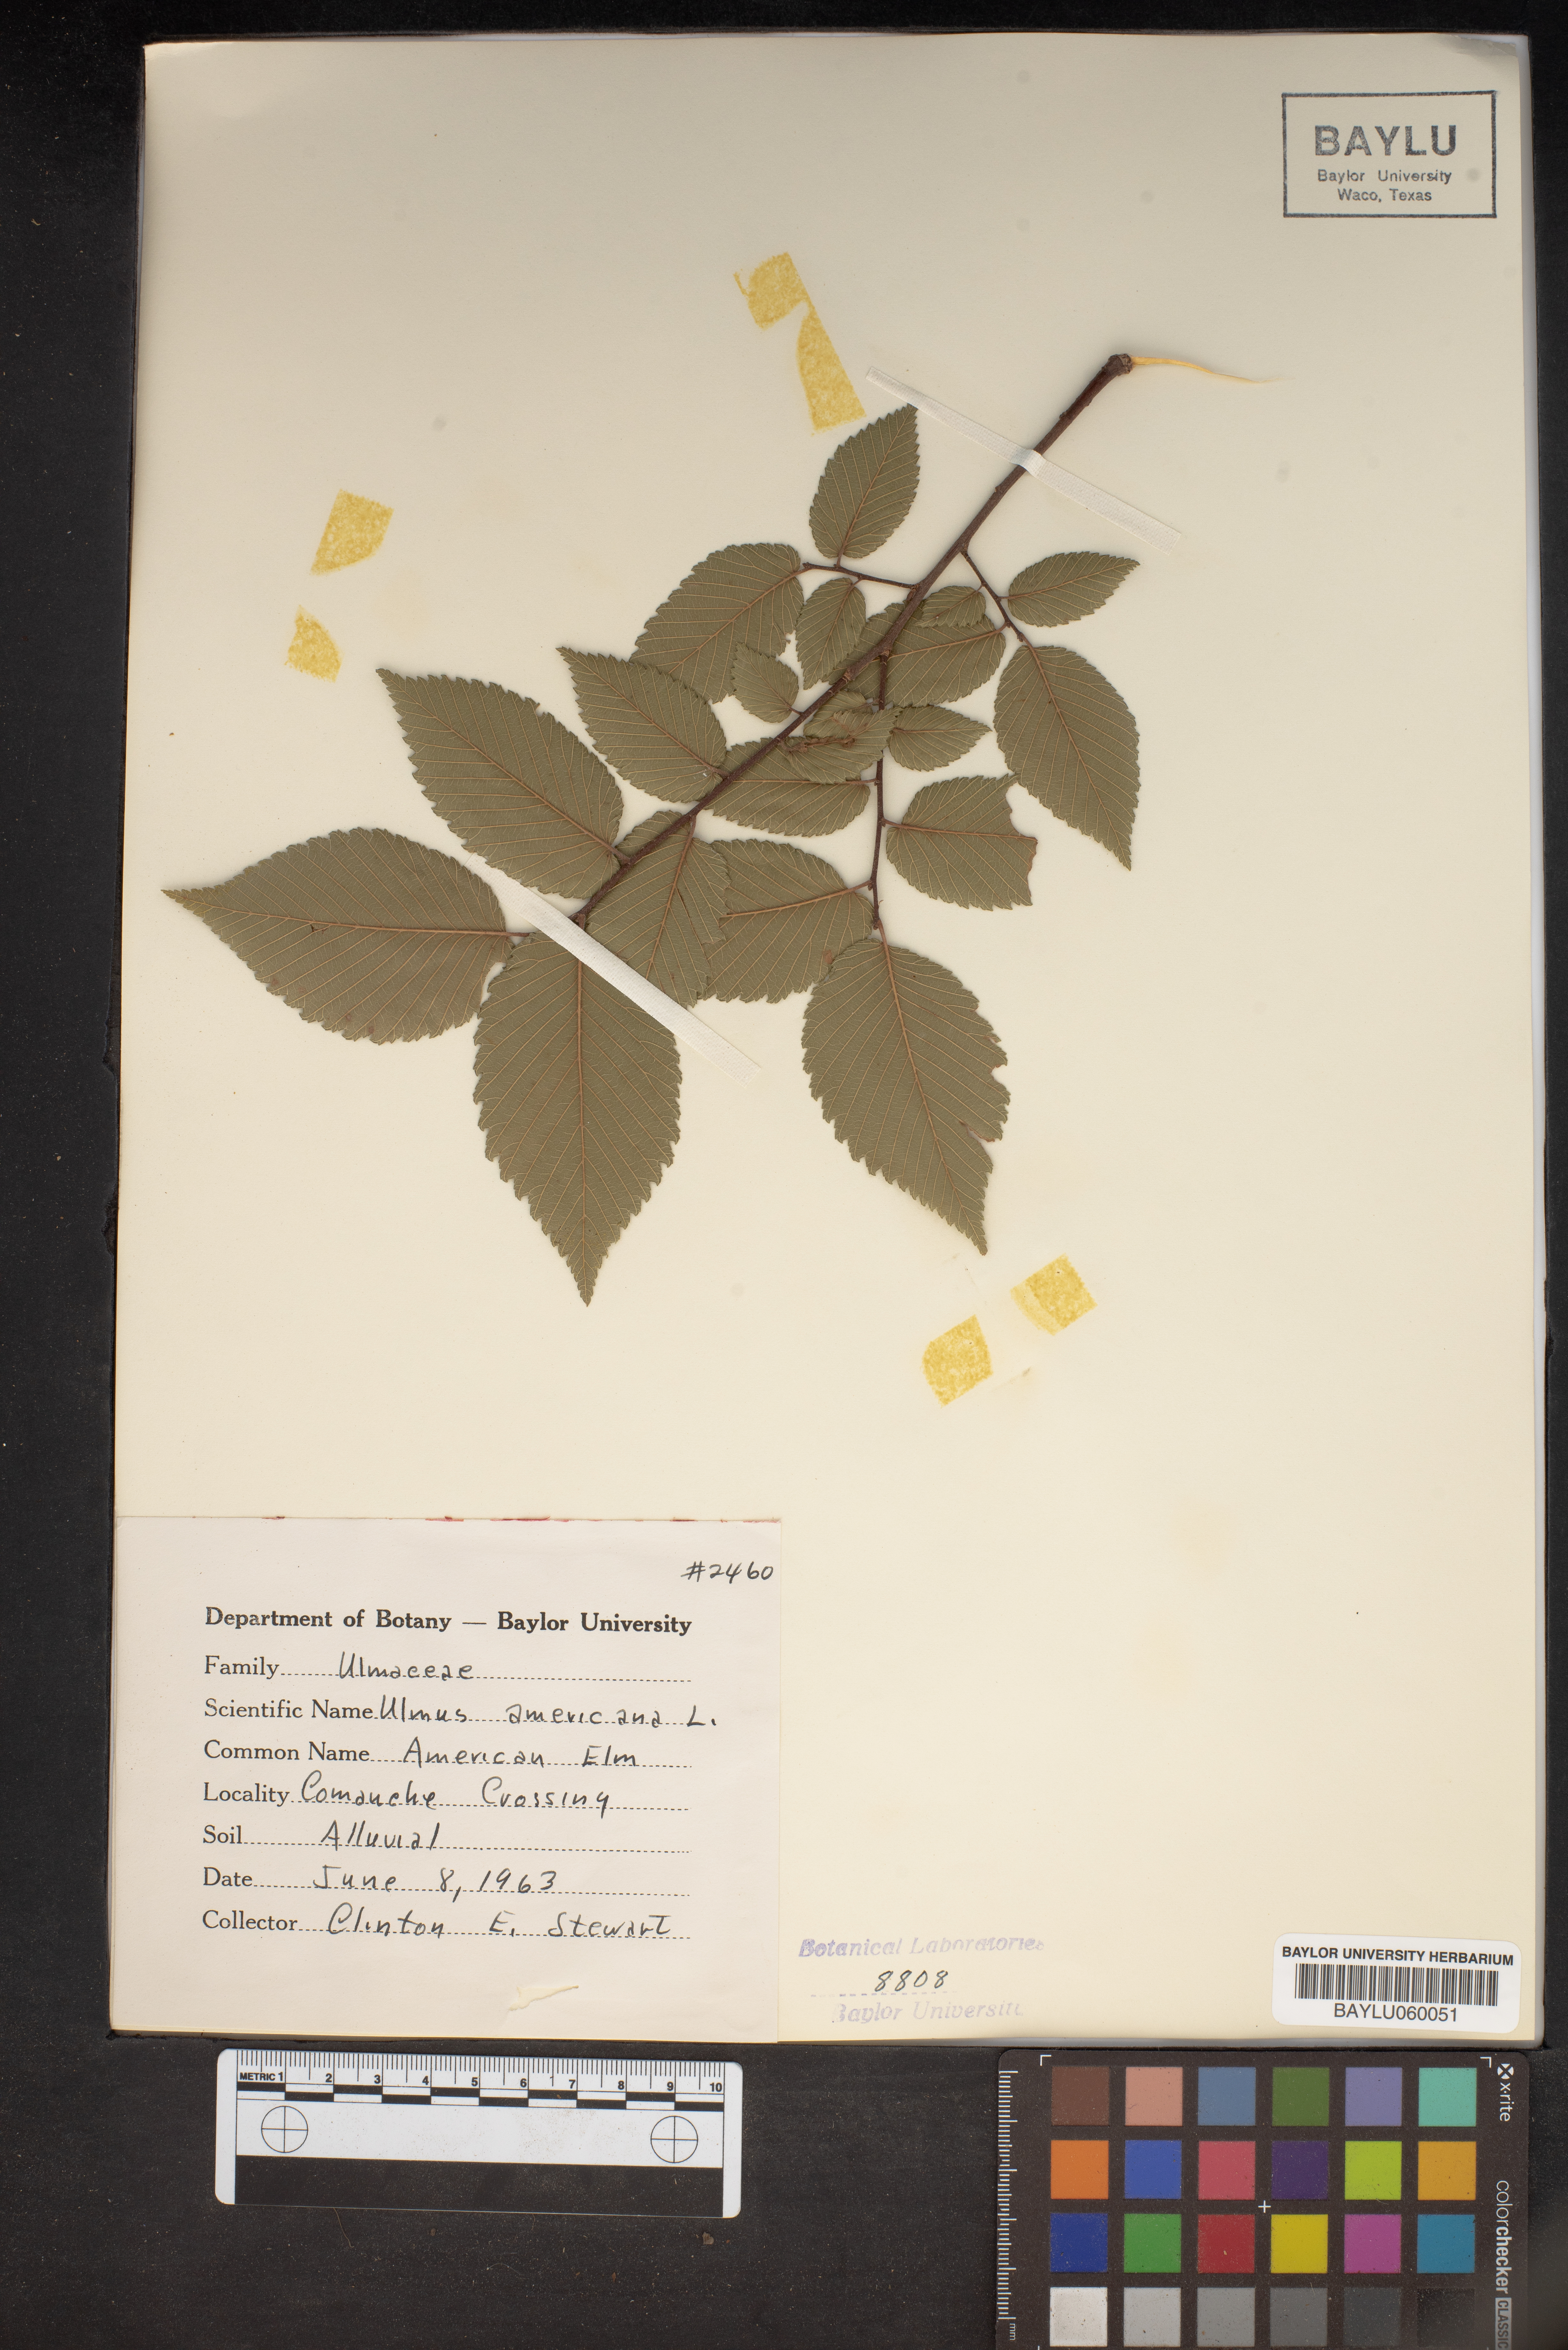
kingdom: Plantae
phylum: Tracheophyta
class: Magnoliopsida
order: Rosales
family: Ulmaceae
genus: Ulmus
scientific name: Ulmus americana
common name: American elm
